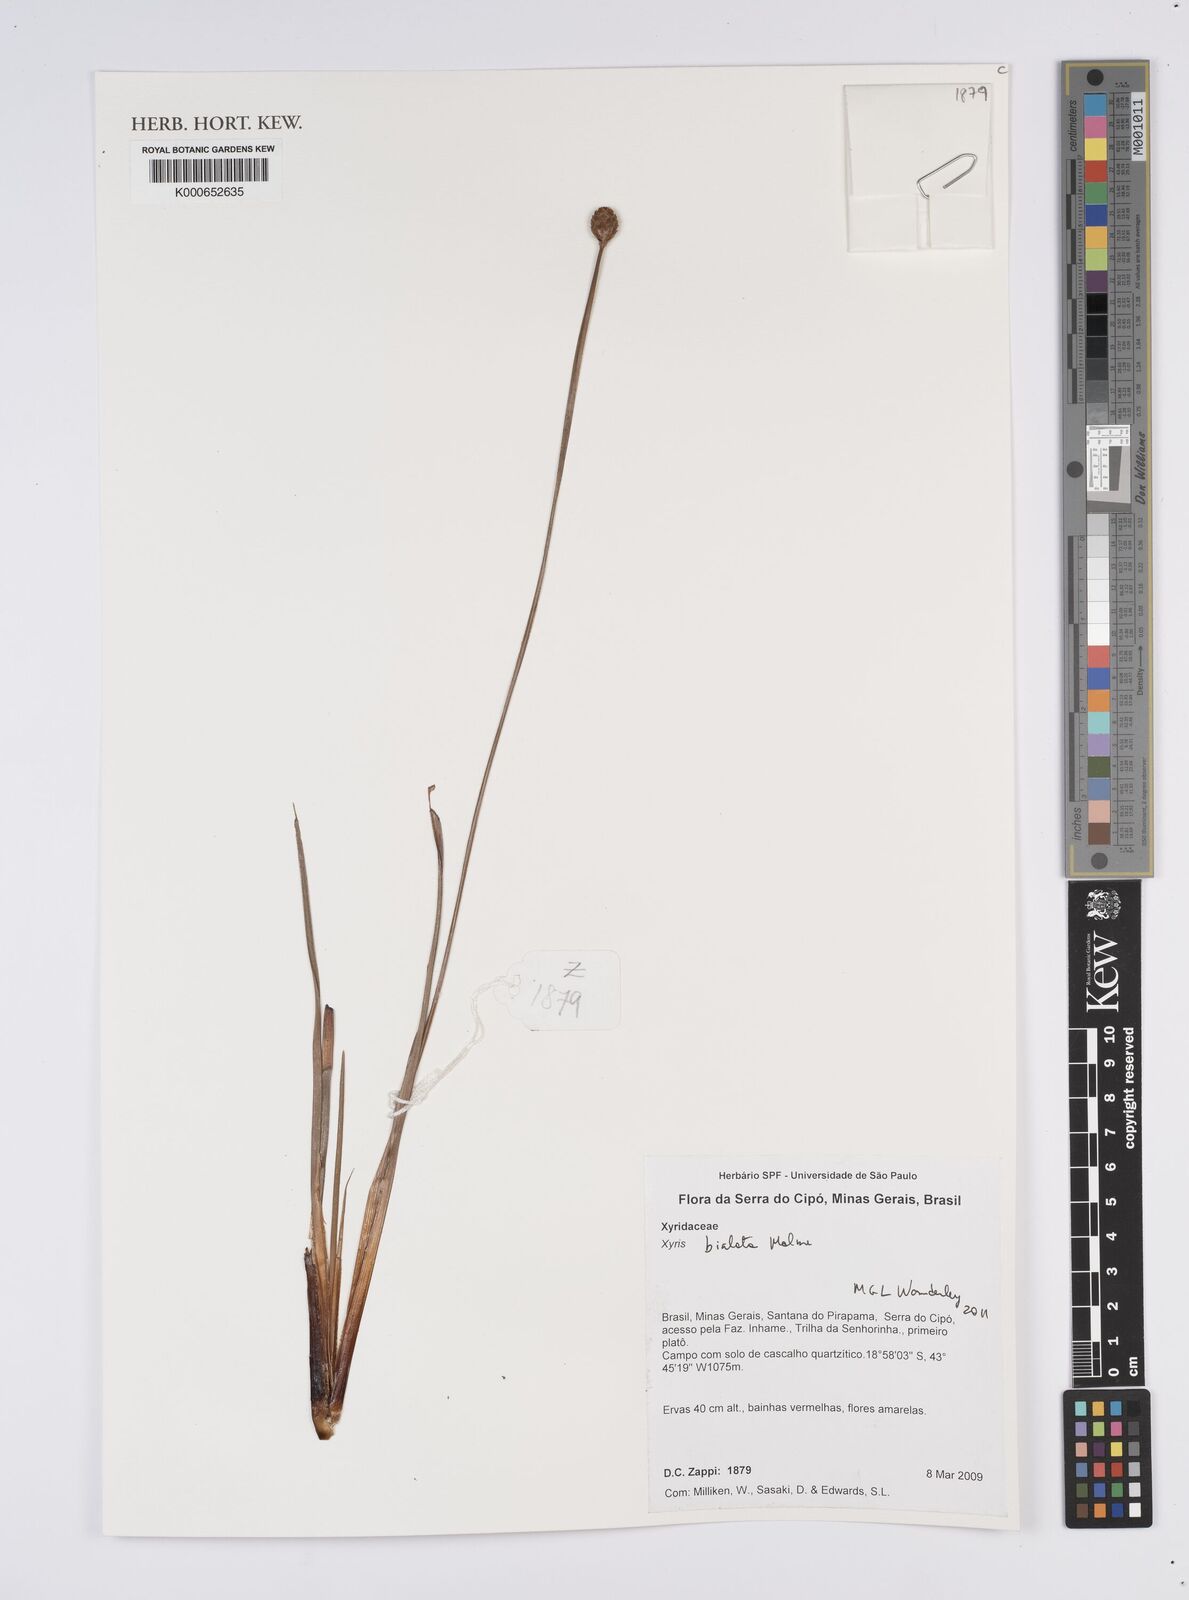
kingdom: Plantae
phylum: Tracheophyta
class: Liliopsida
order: Poales
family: Xyridaceae
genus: Xyris
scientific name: Xyris bialata
